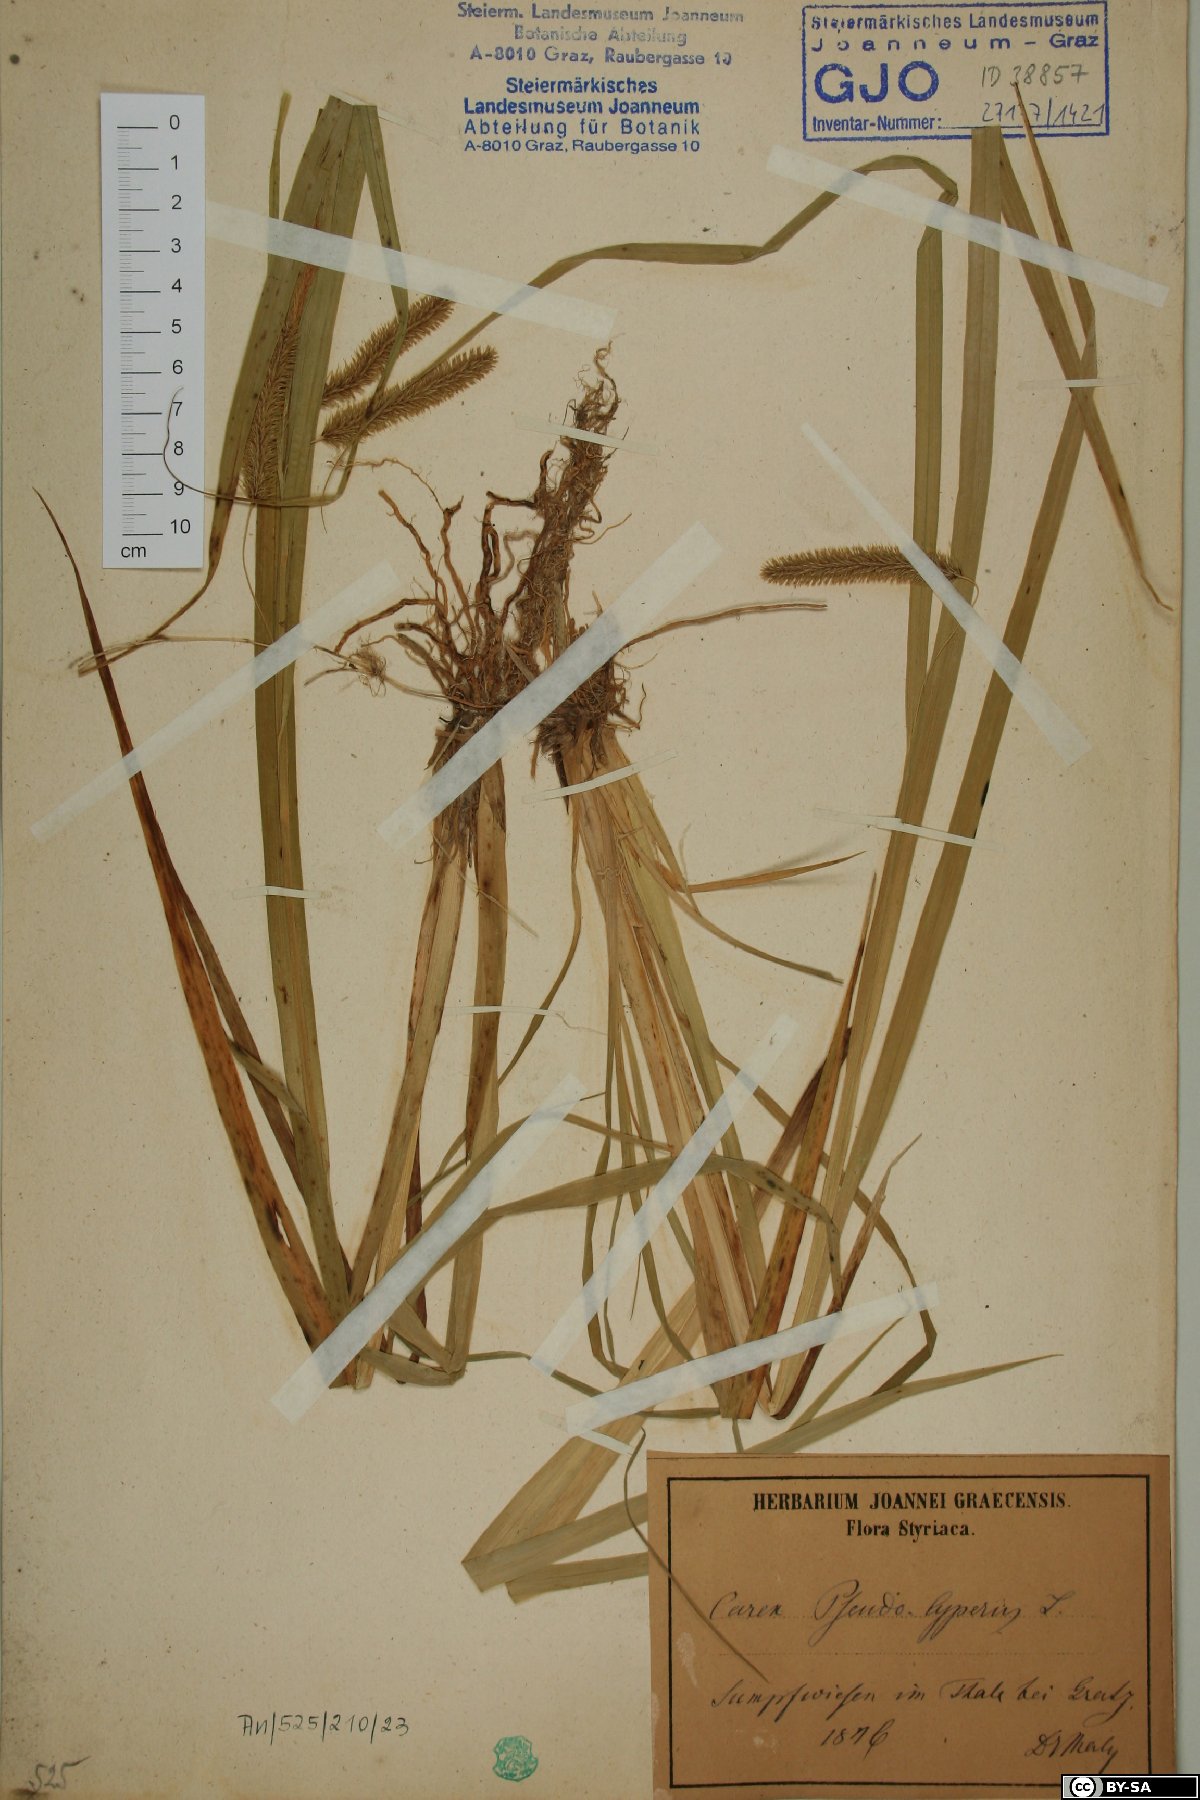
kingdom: Plantae
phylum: Tracheophyta
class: Liliopsida
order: Poales
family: Cyperaceae
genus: Carex
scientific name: Carex pseudocyperus
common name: Cyperus sedge
